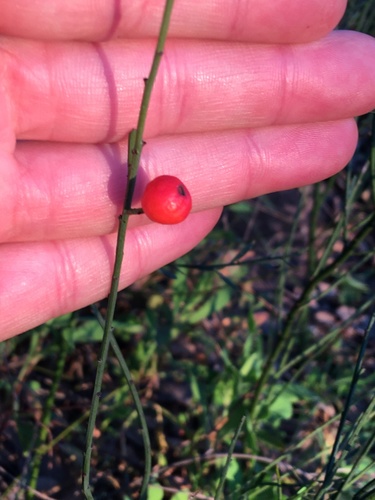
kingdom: Plantae
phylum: Tracheophyta
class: Magnoliopsida
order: Santalales
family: Santalaceae
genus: Osyris
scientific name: Osyris quadripartita
